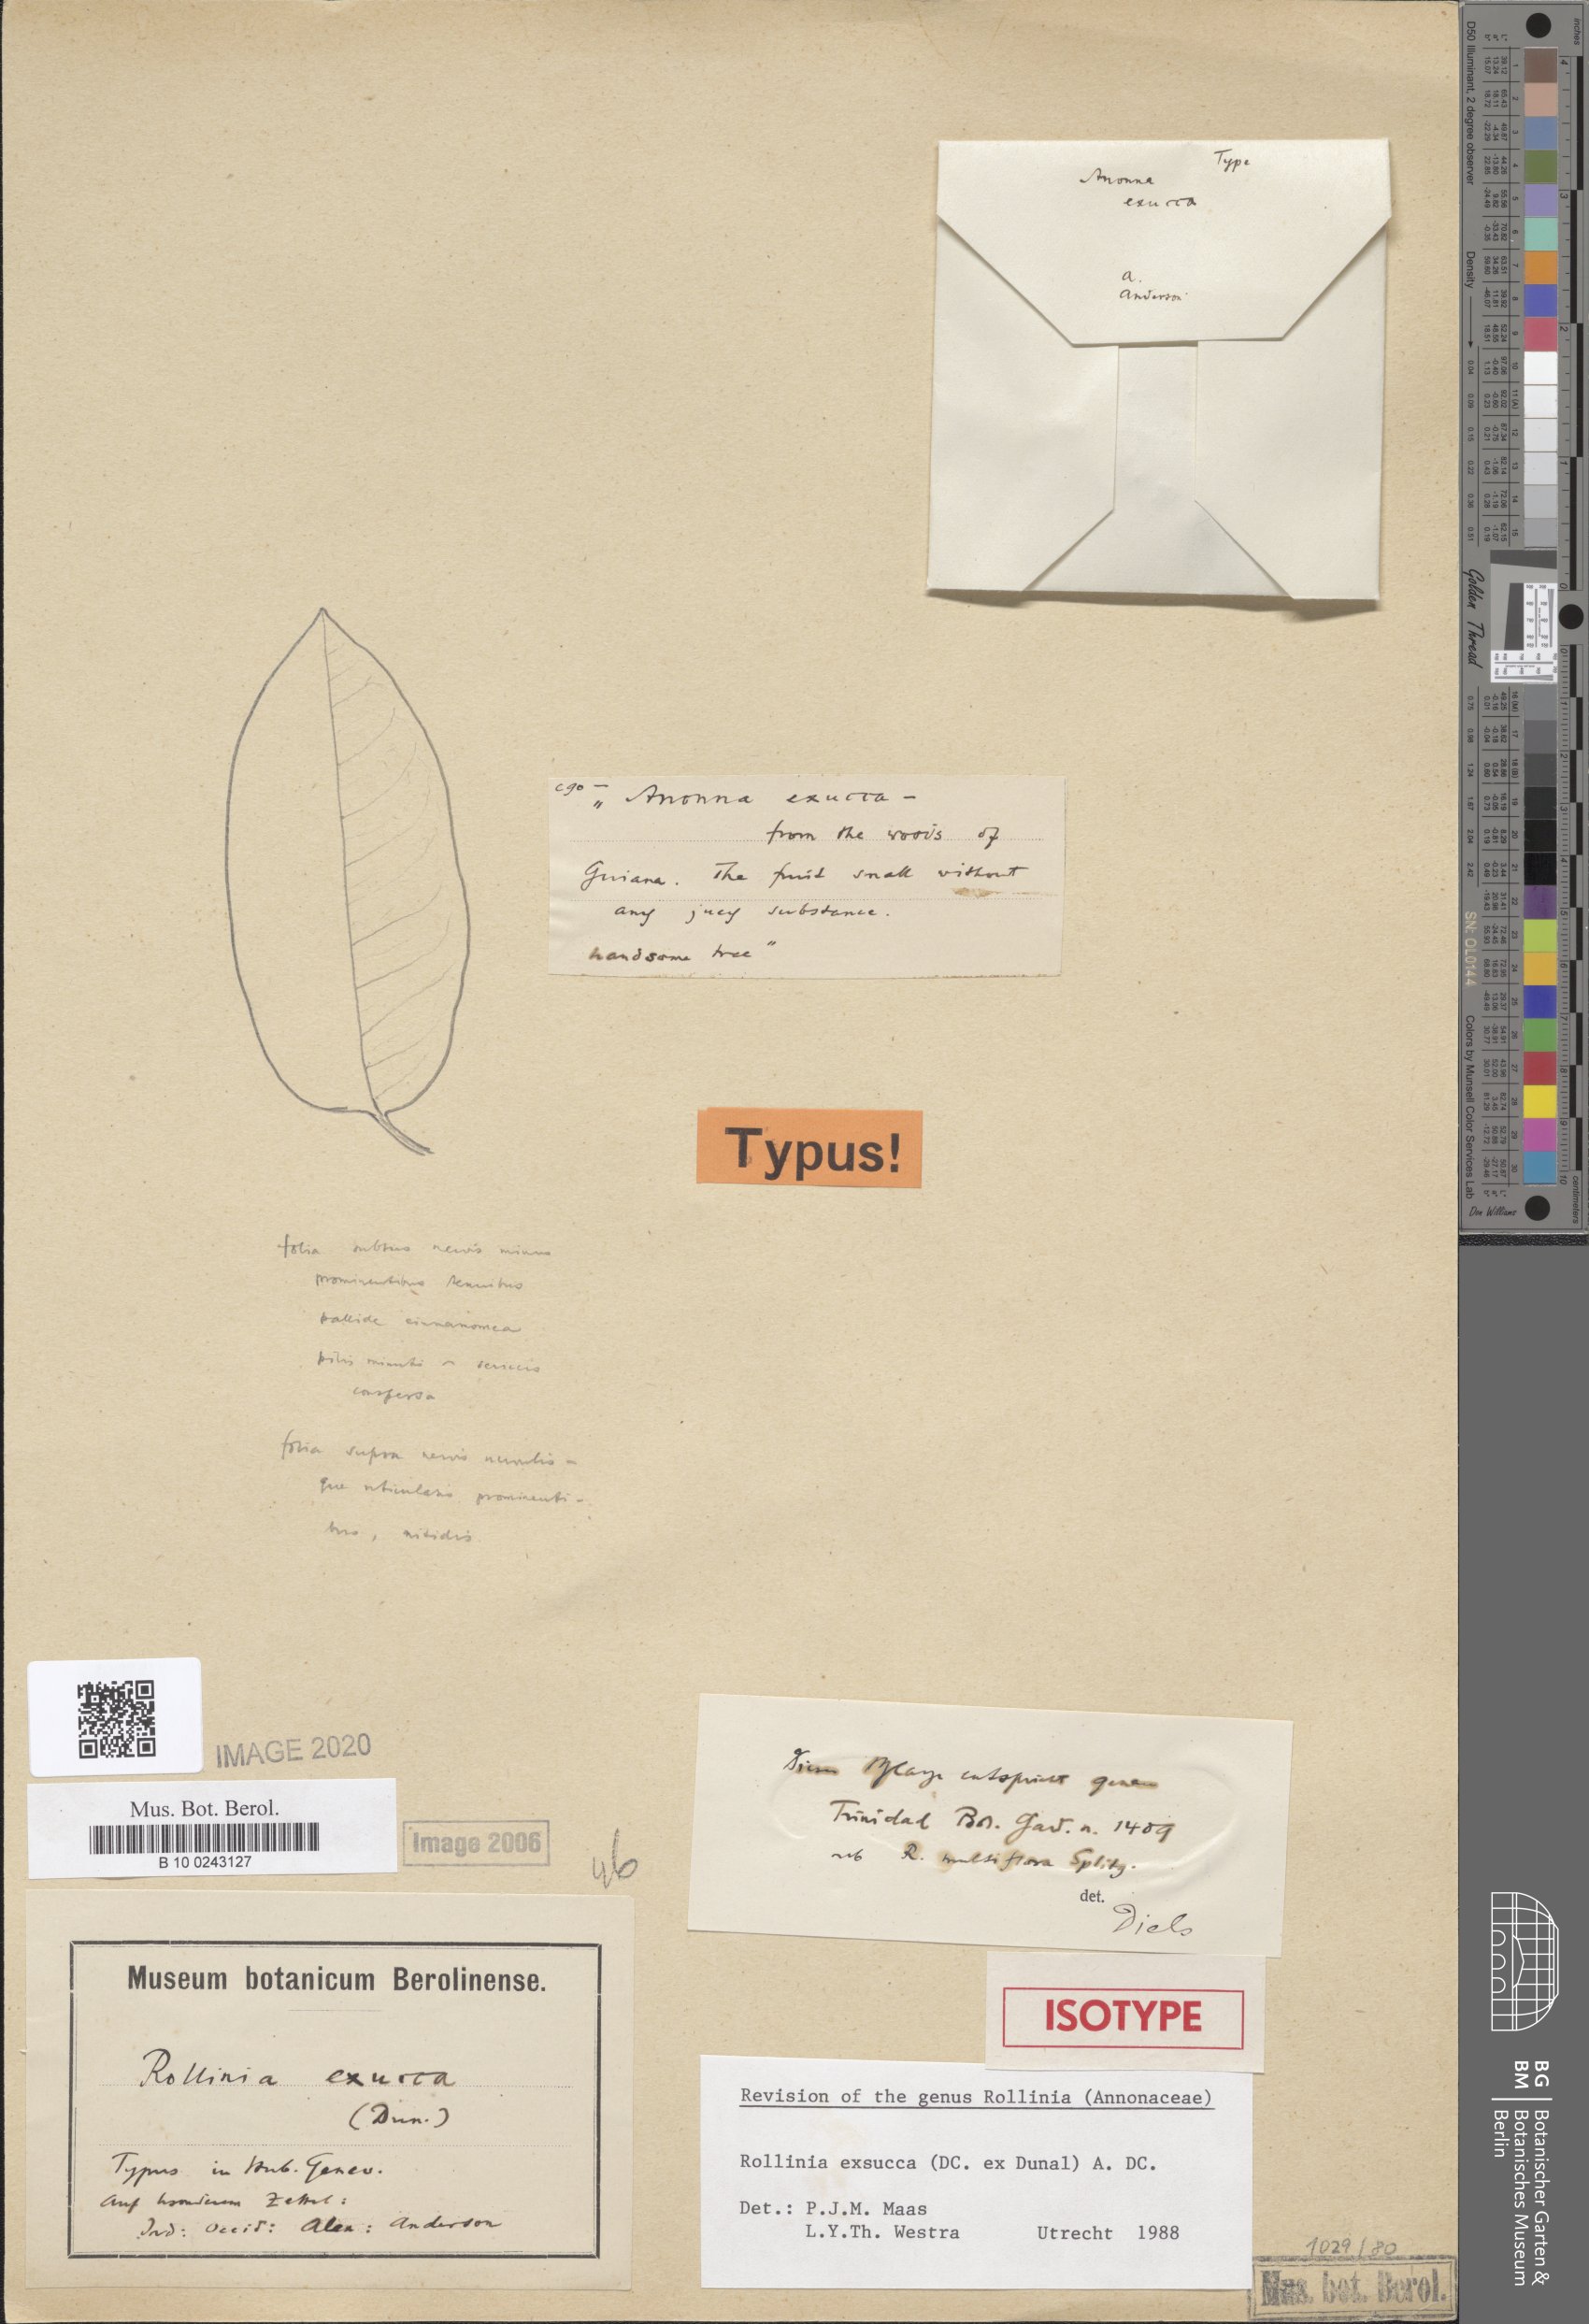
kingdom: Plantae
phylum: Tracheophyta
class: Magnoliopsida
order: Magnoliales
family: Annonaceae
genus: Annona
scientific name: Annona exsucca
